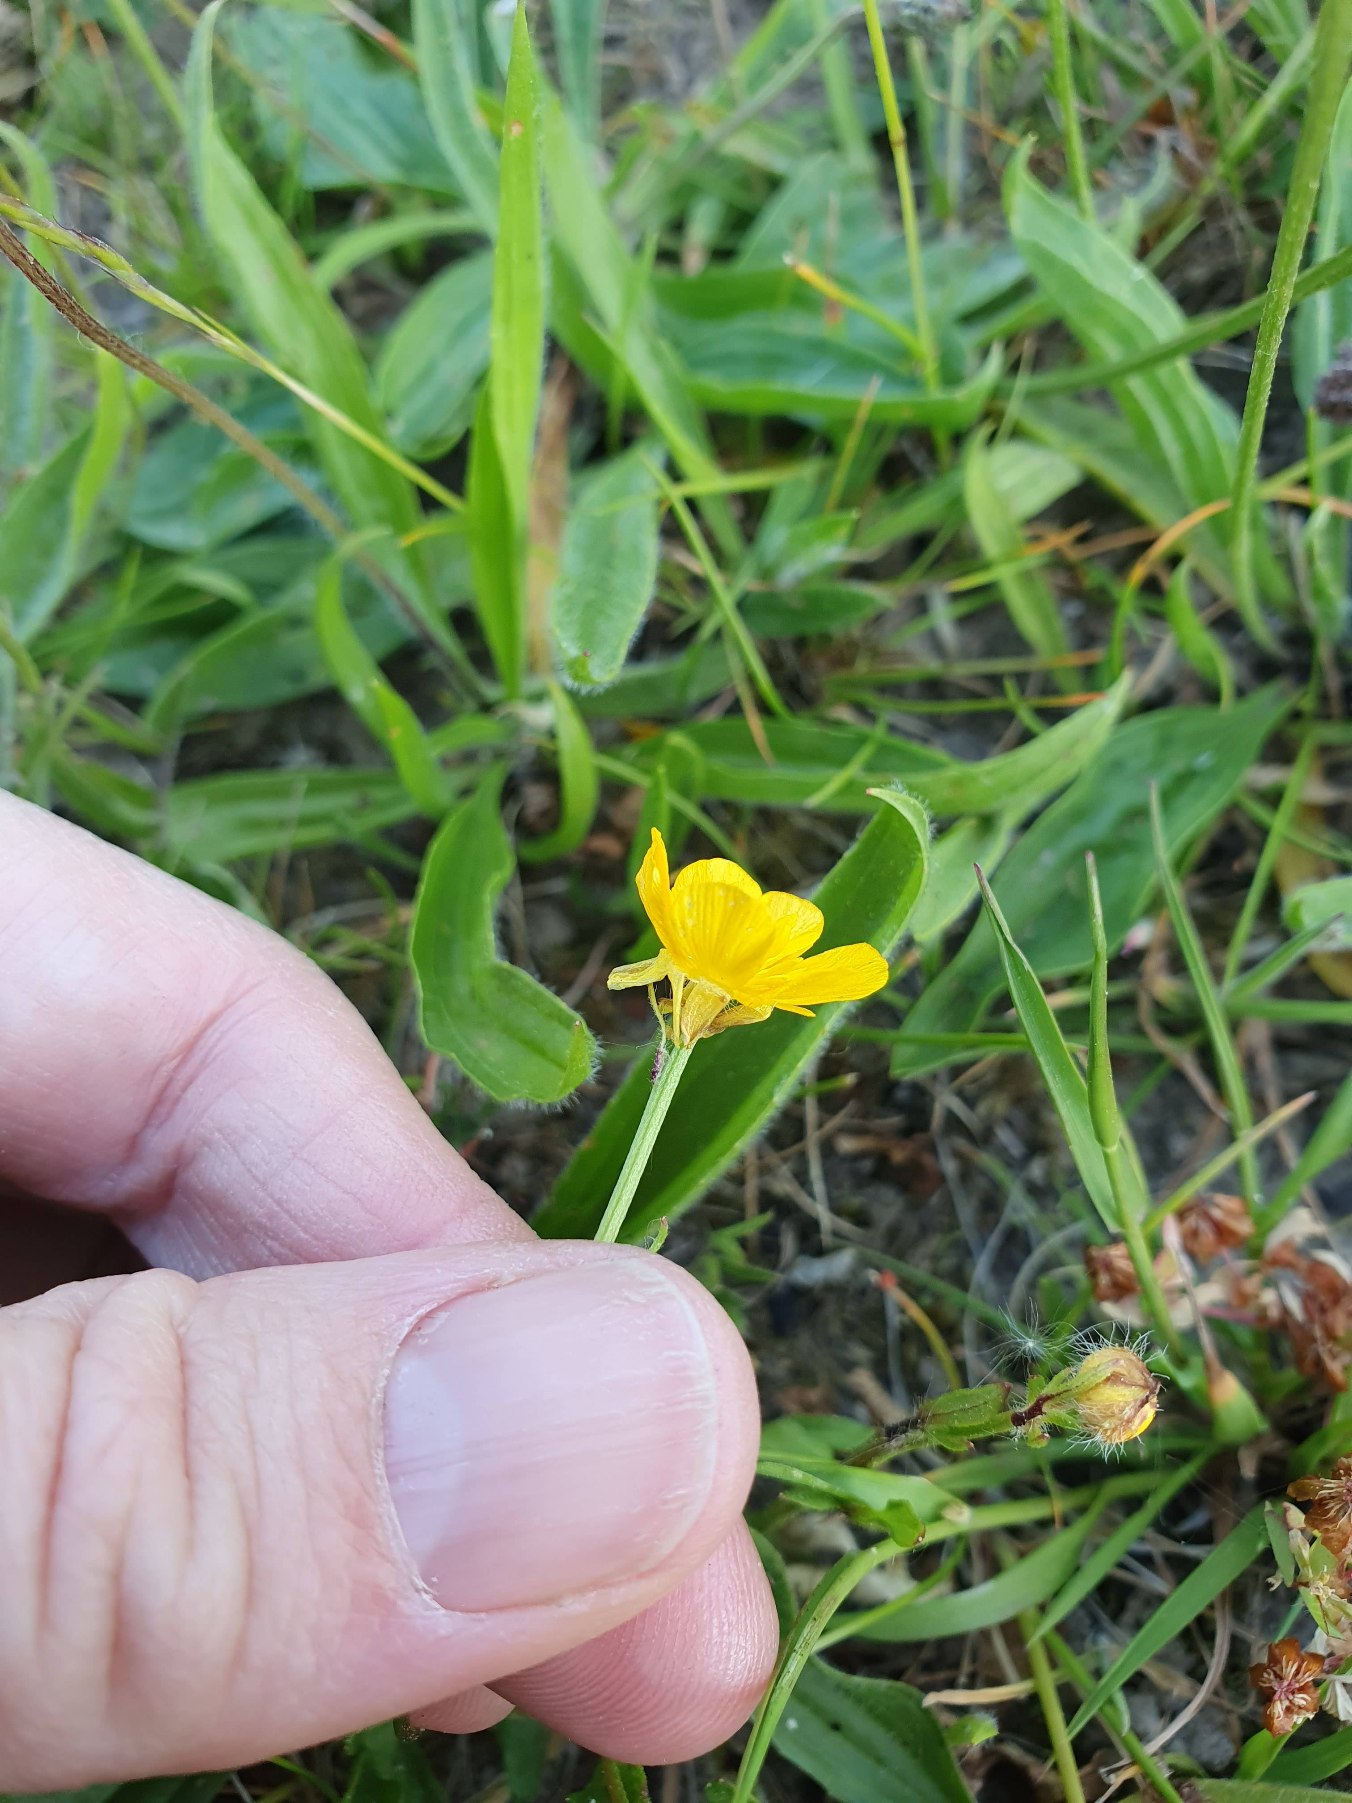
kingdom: Plantae
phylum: Tracheophyta
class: Magnoliopsida
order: Ranunculales
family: Ranunculaceae
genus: Ranunculus
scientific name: Ranunculus bulbosus
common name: Knold-ranunkel
